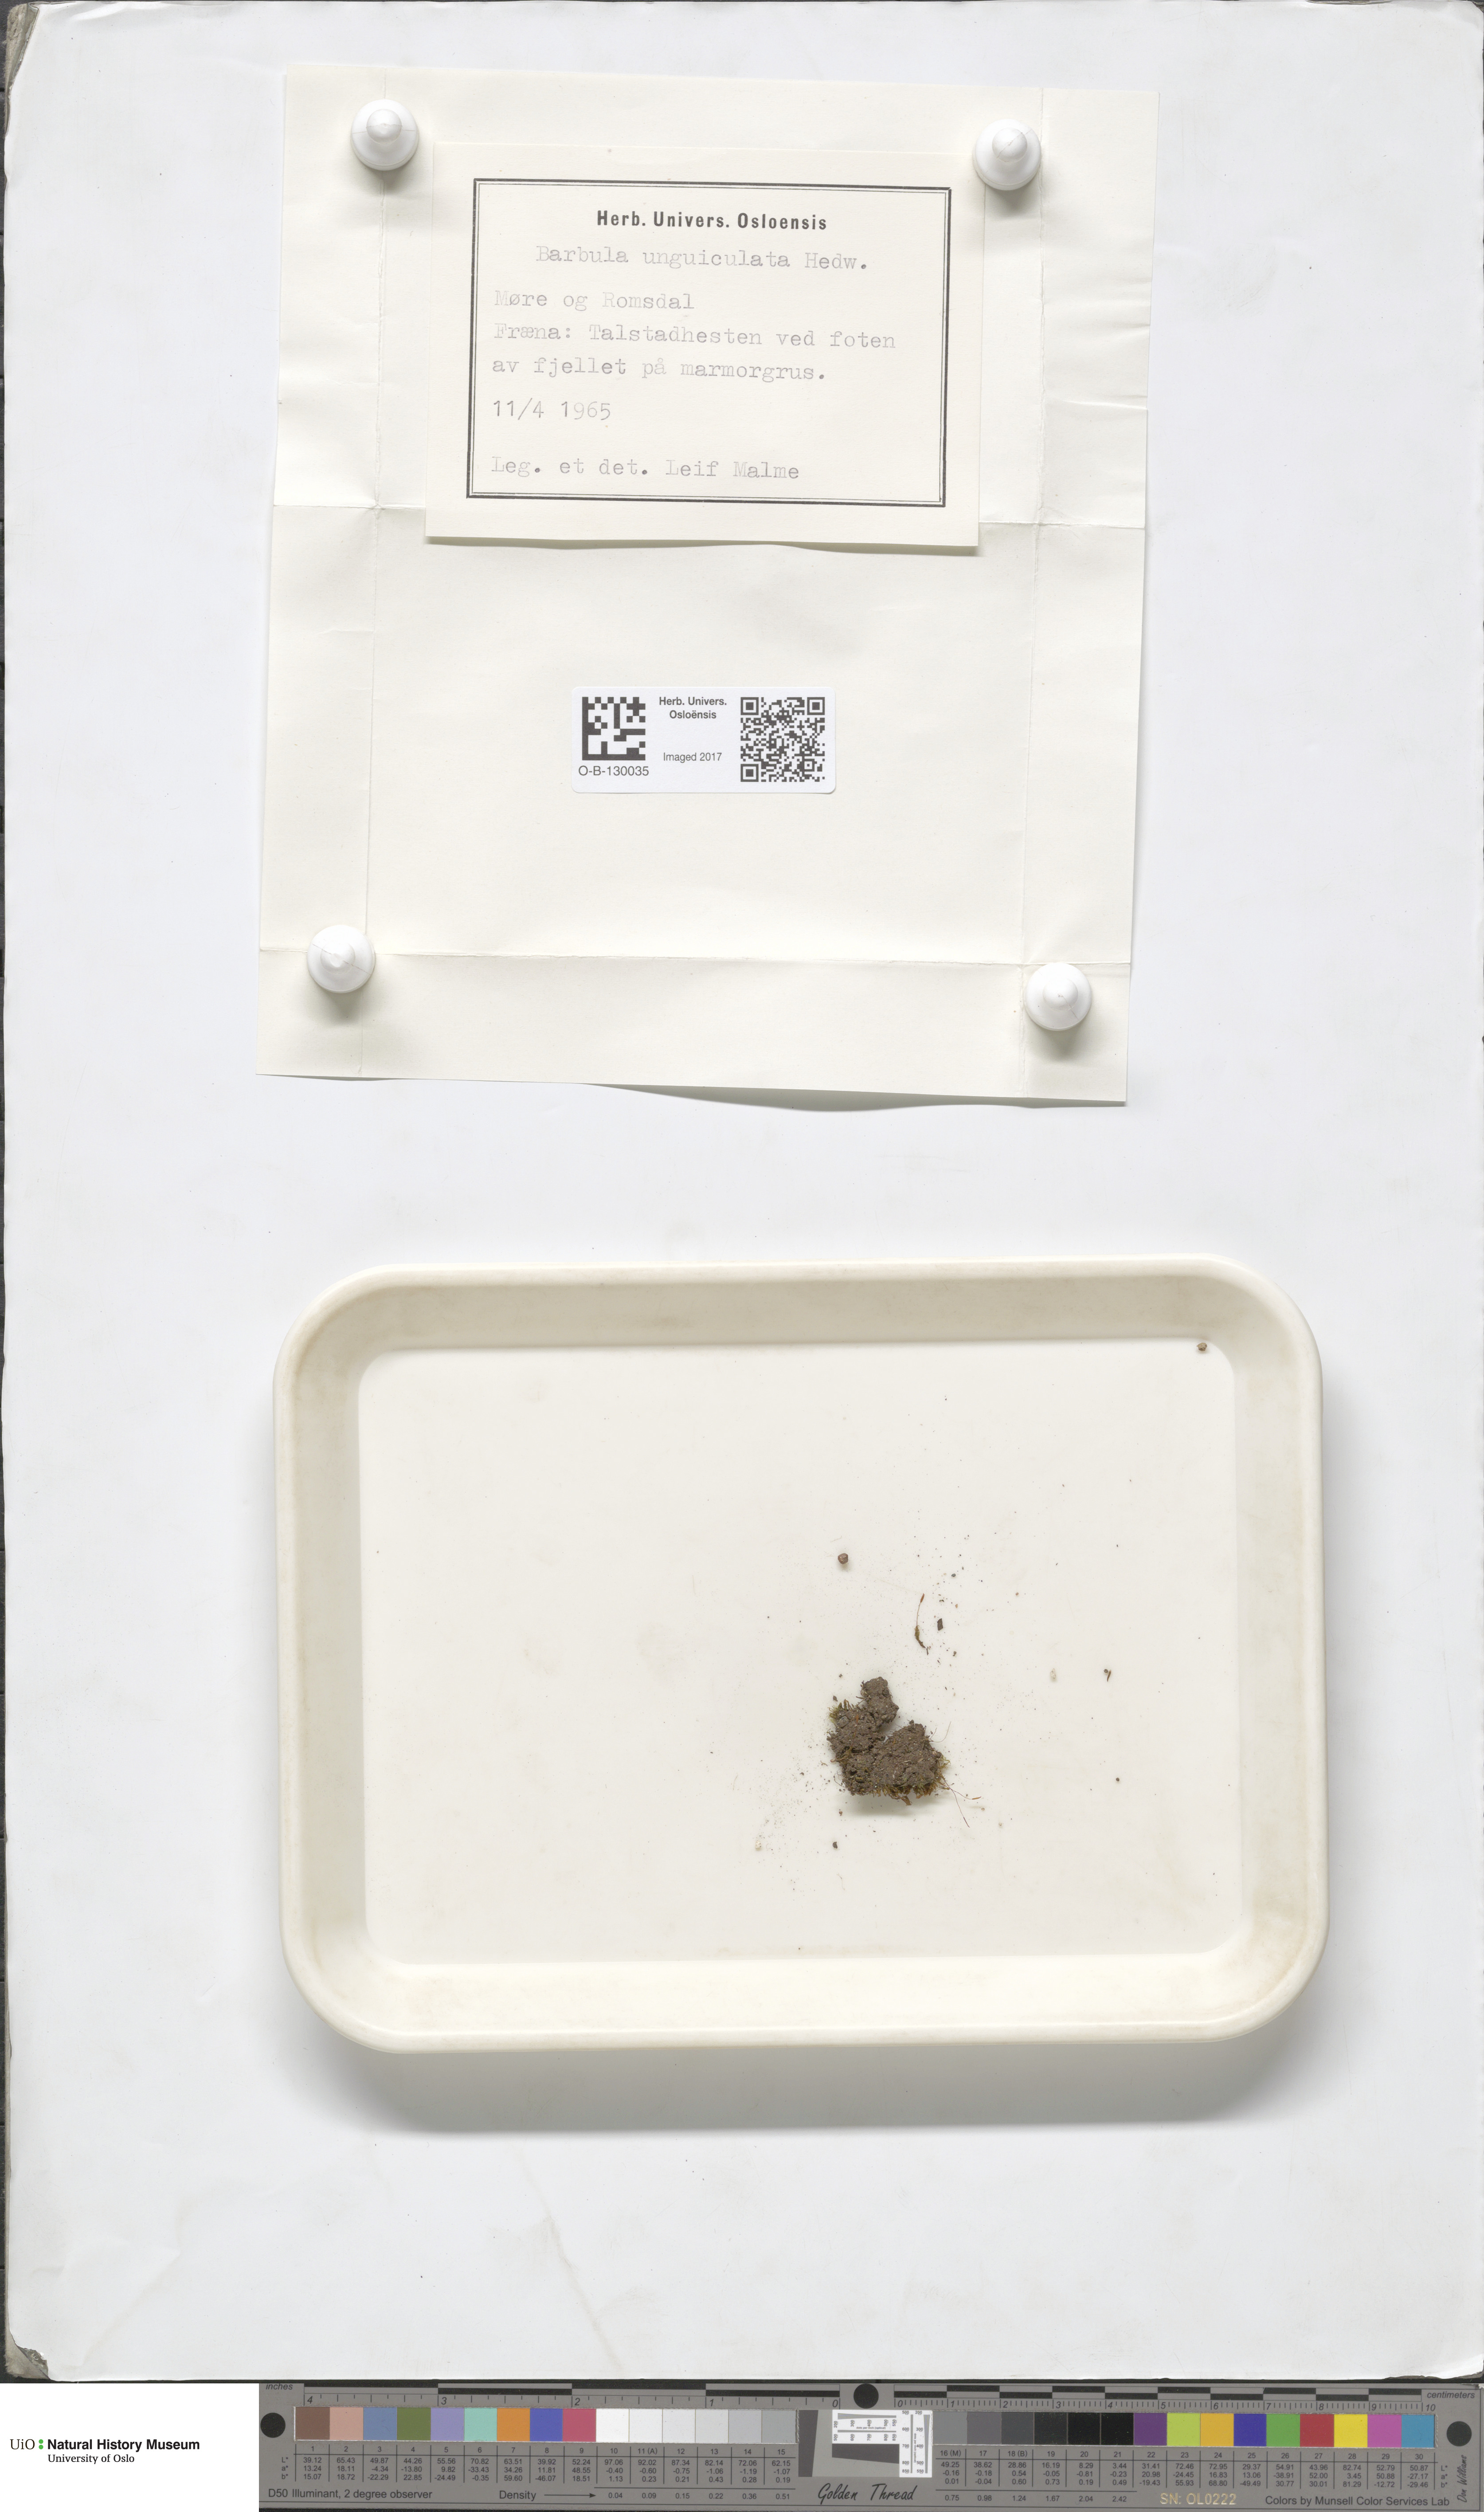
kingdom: Plantae
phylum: Bryophyta
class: Bryopsida
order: Pottiales
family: Pottiaceae
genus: Barbula
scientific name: Barbula unguiculata
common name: Prickly beard moss
